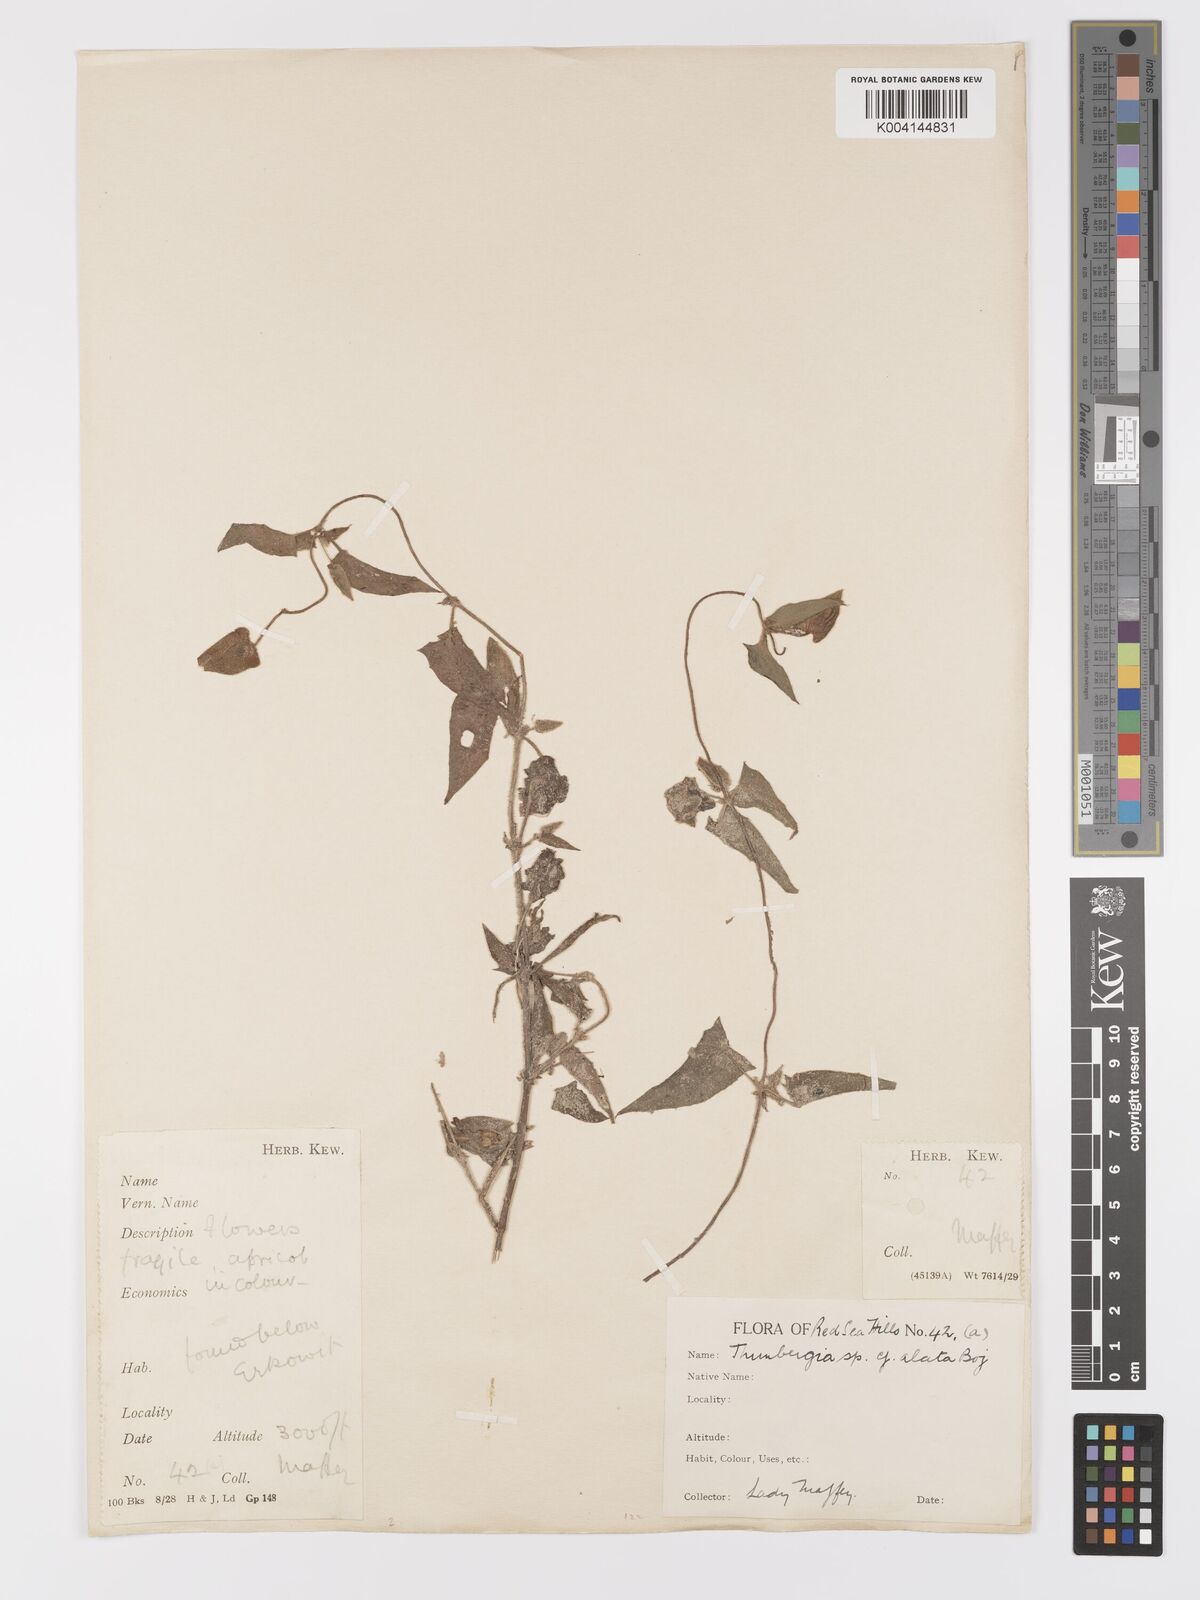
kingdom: Plantae
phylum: Tracheophyta
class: Magnoliopsida
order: Lamiales
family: Acanthaceae
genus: Thunbergia
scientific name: Thunbergia reticulata
